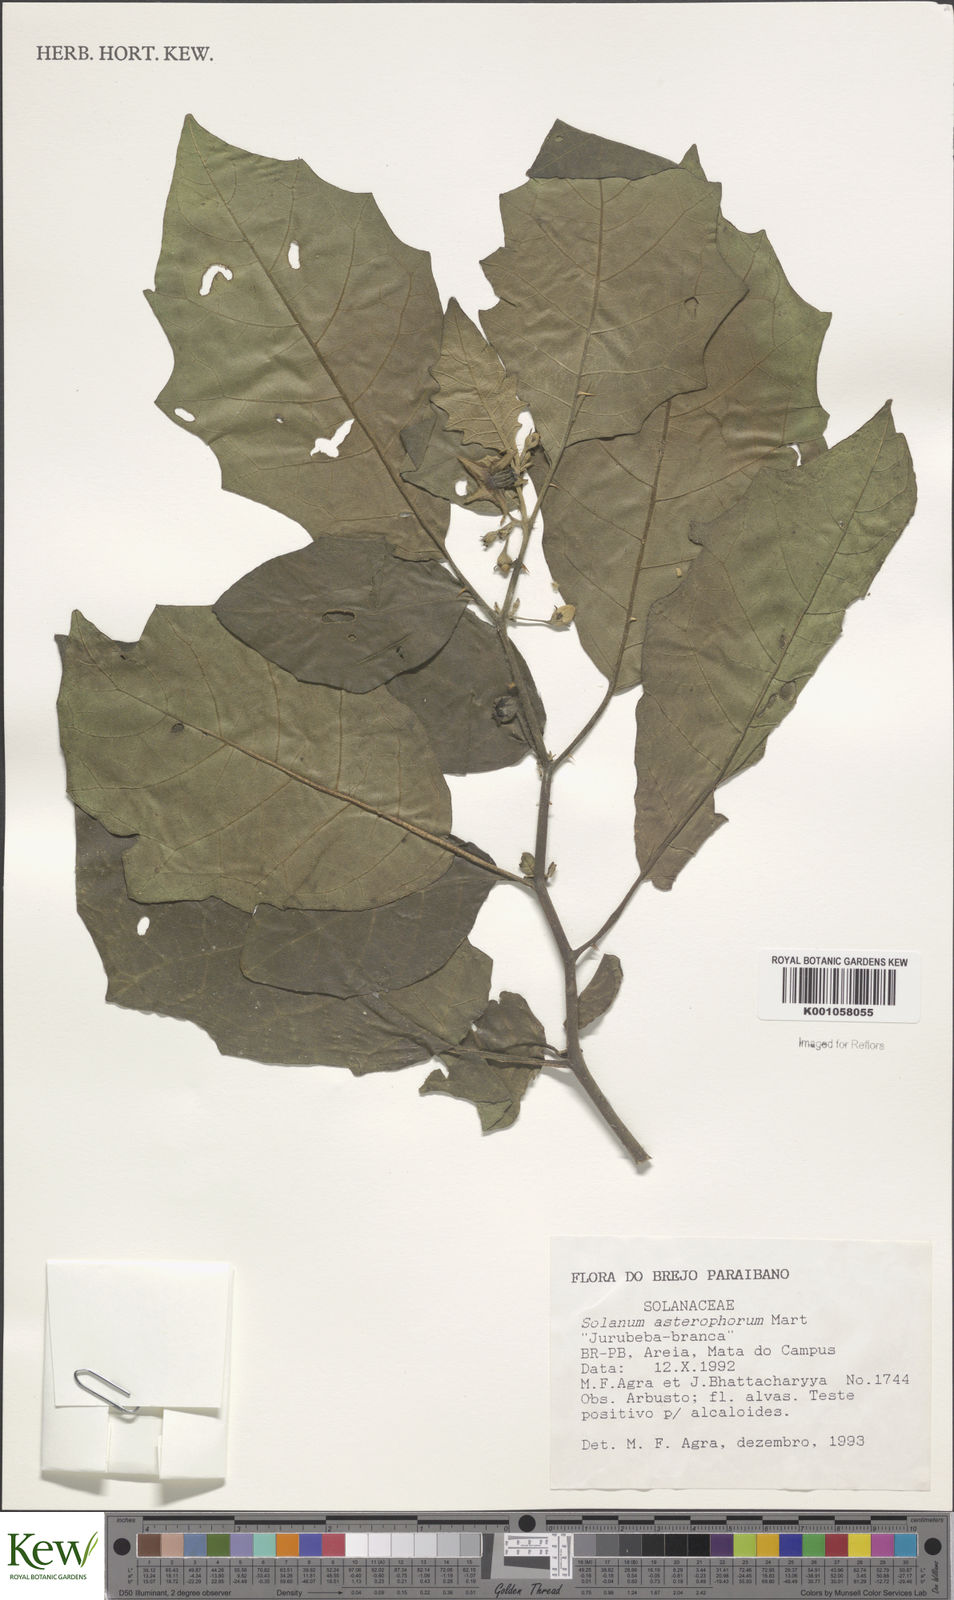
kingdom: Plantae
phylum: Tracheophyta
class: Magnoliopsida
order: Solanales
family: Solanaceae
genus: Solanum
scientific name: Solanum asterophorum
